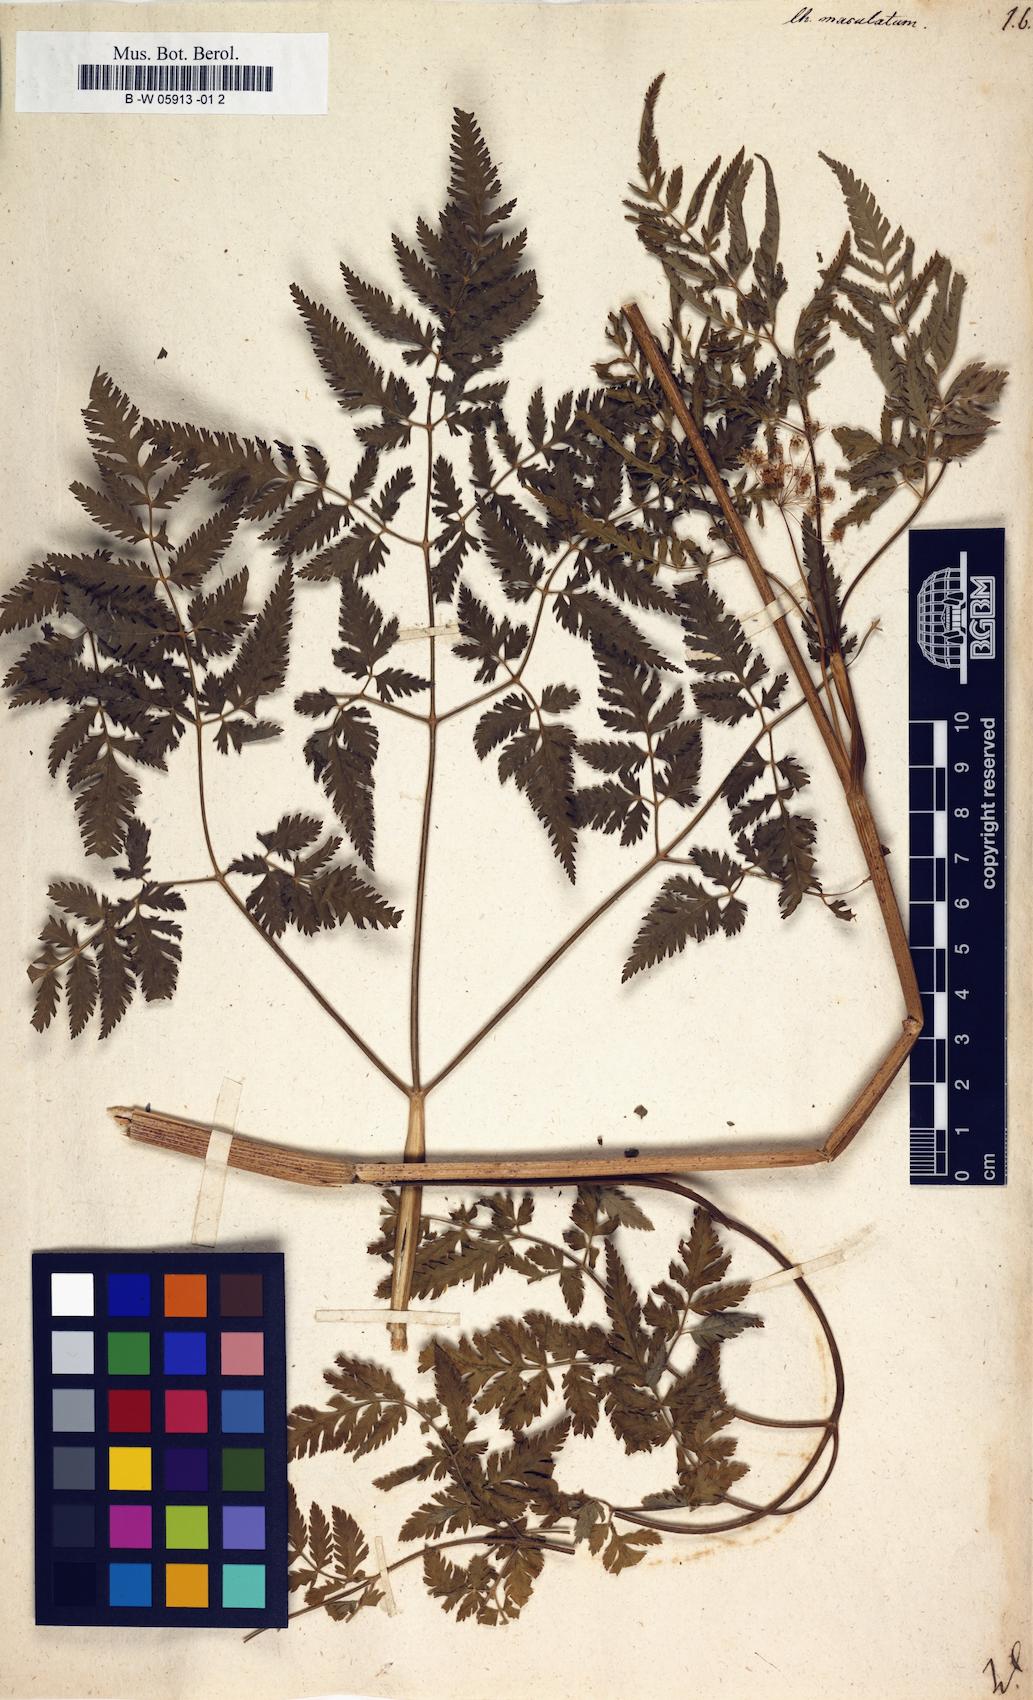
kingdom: Plantae
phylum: Tracheophyta
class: Magnoliopsida
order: Apiales
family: Apiaceae
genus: Chaerophyllum
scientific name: Chaerophyllum aureum
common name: Golden chervil
